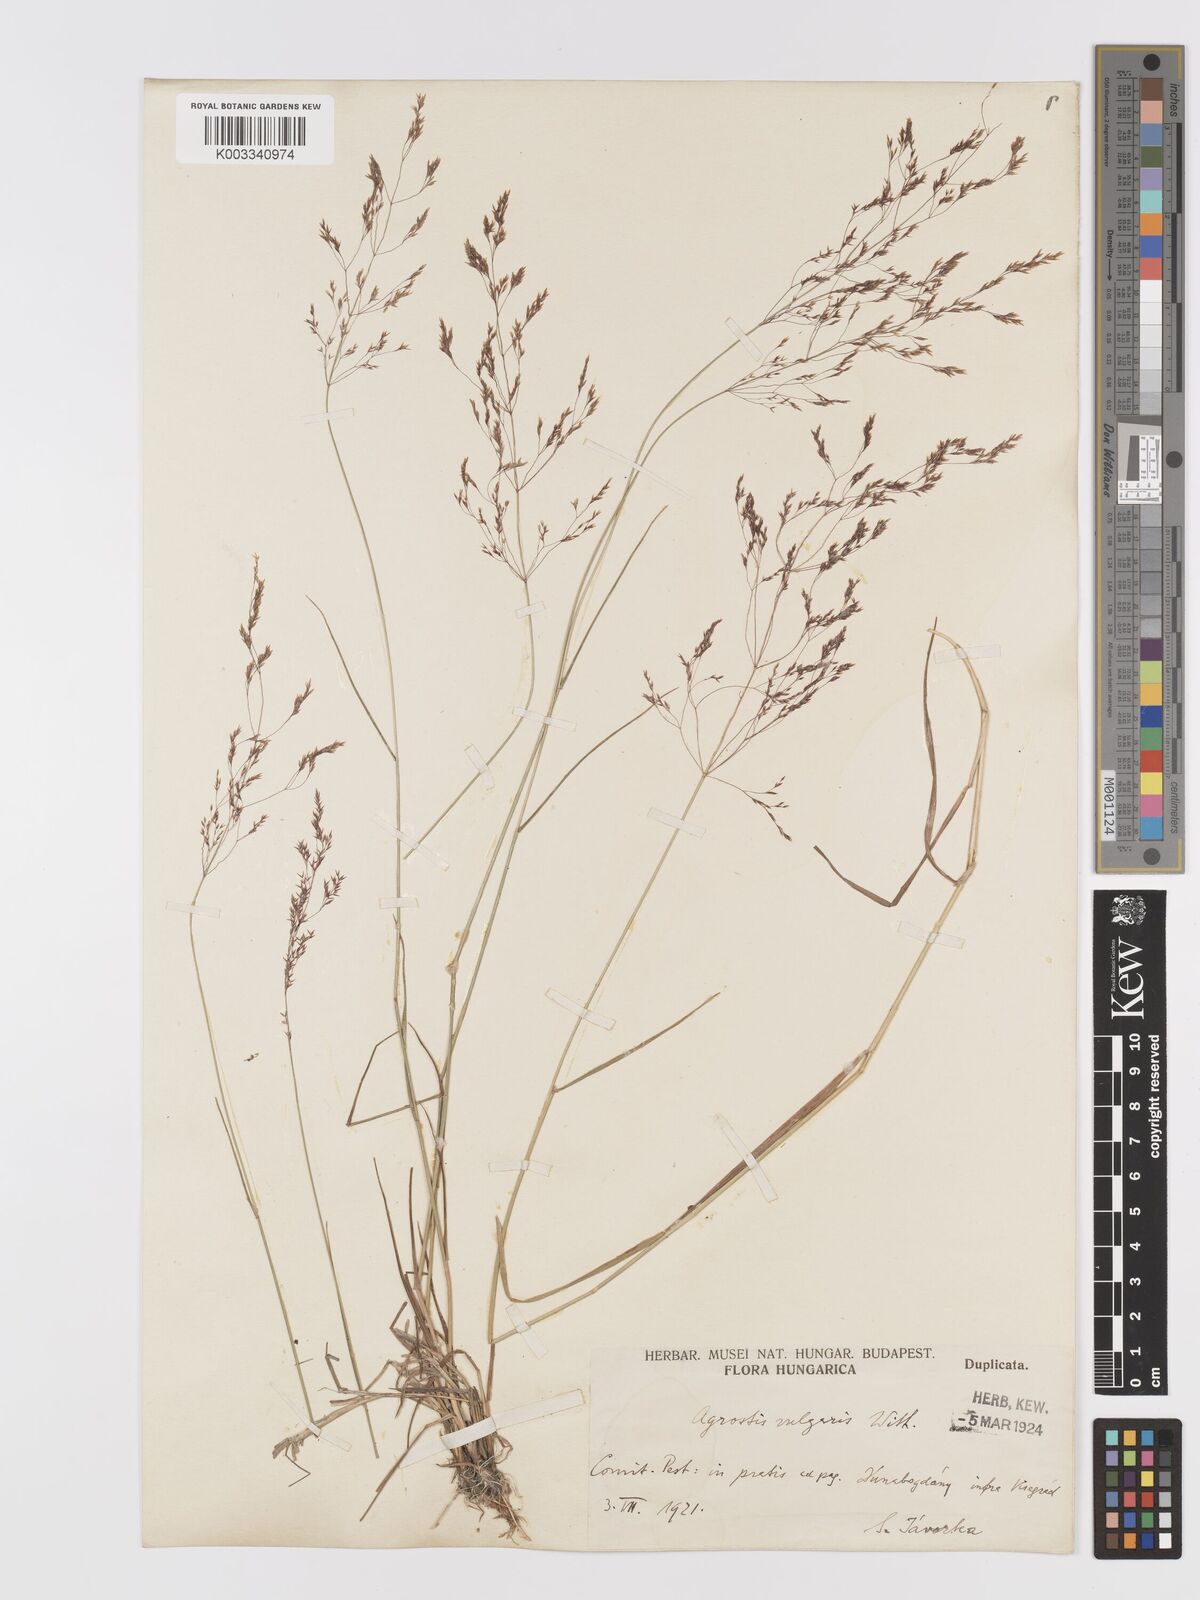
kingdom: Plantae
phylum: Tracheophyta
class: Liliopsida
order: Poales
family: Poaceae
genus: Agrostis
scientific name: Agrostis capillaris
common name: Colonial bentgrass
